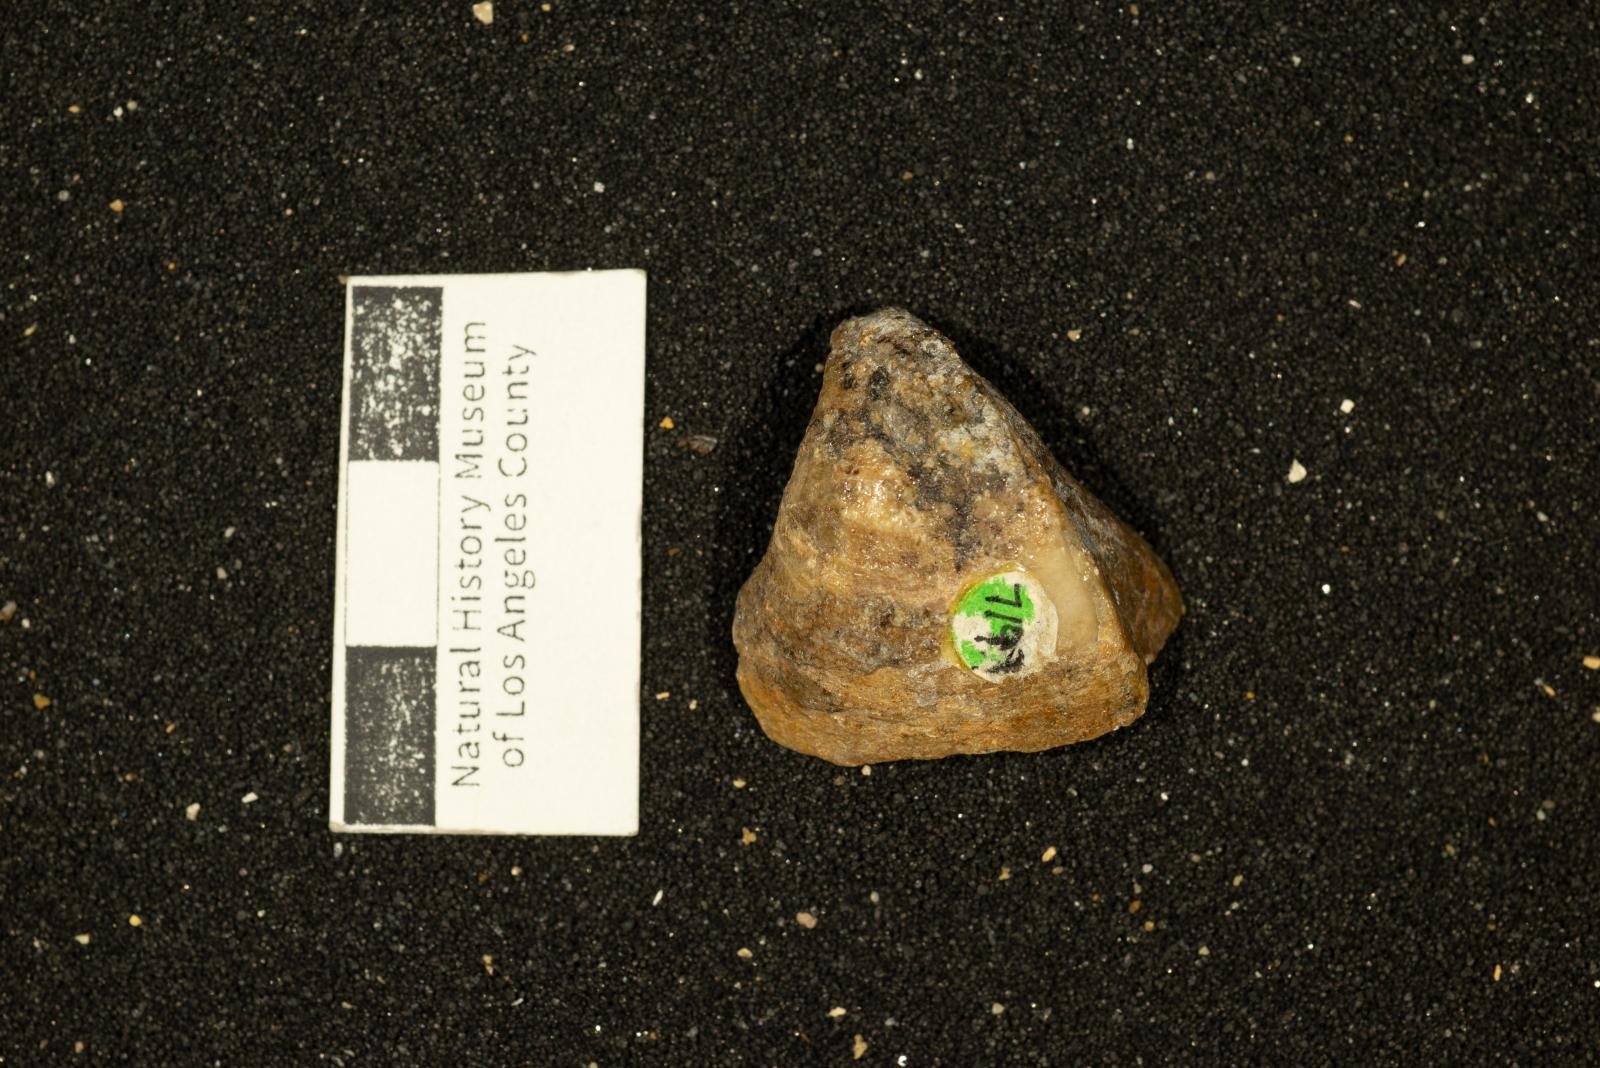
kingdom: Animalia
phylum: Mollusca
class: Bivalvia
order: Carditida
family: Astartidae
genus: Opis
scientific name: Opis rosarioensis
